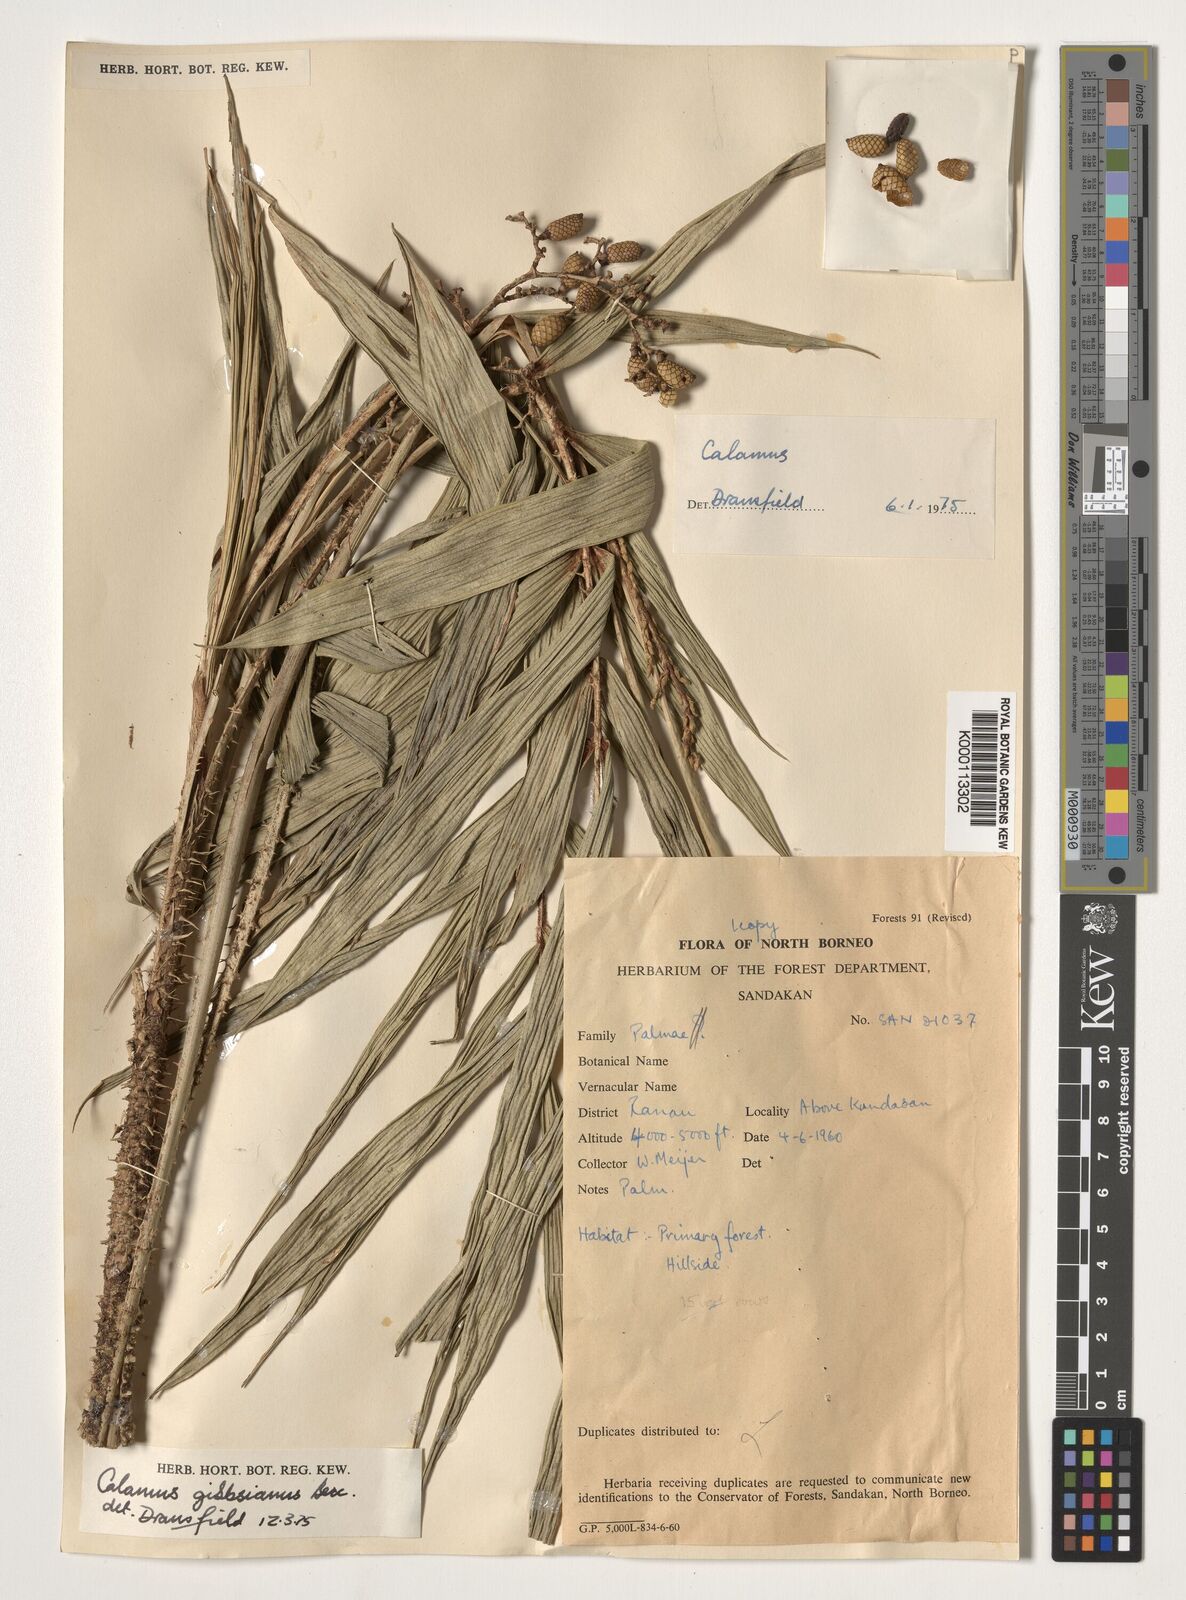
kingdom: Plantae
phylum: Tracheophyta
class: Liliopsida
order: Arecales
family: Arecaceae
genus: Calamus
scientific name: Calamus gibbsianus
